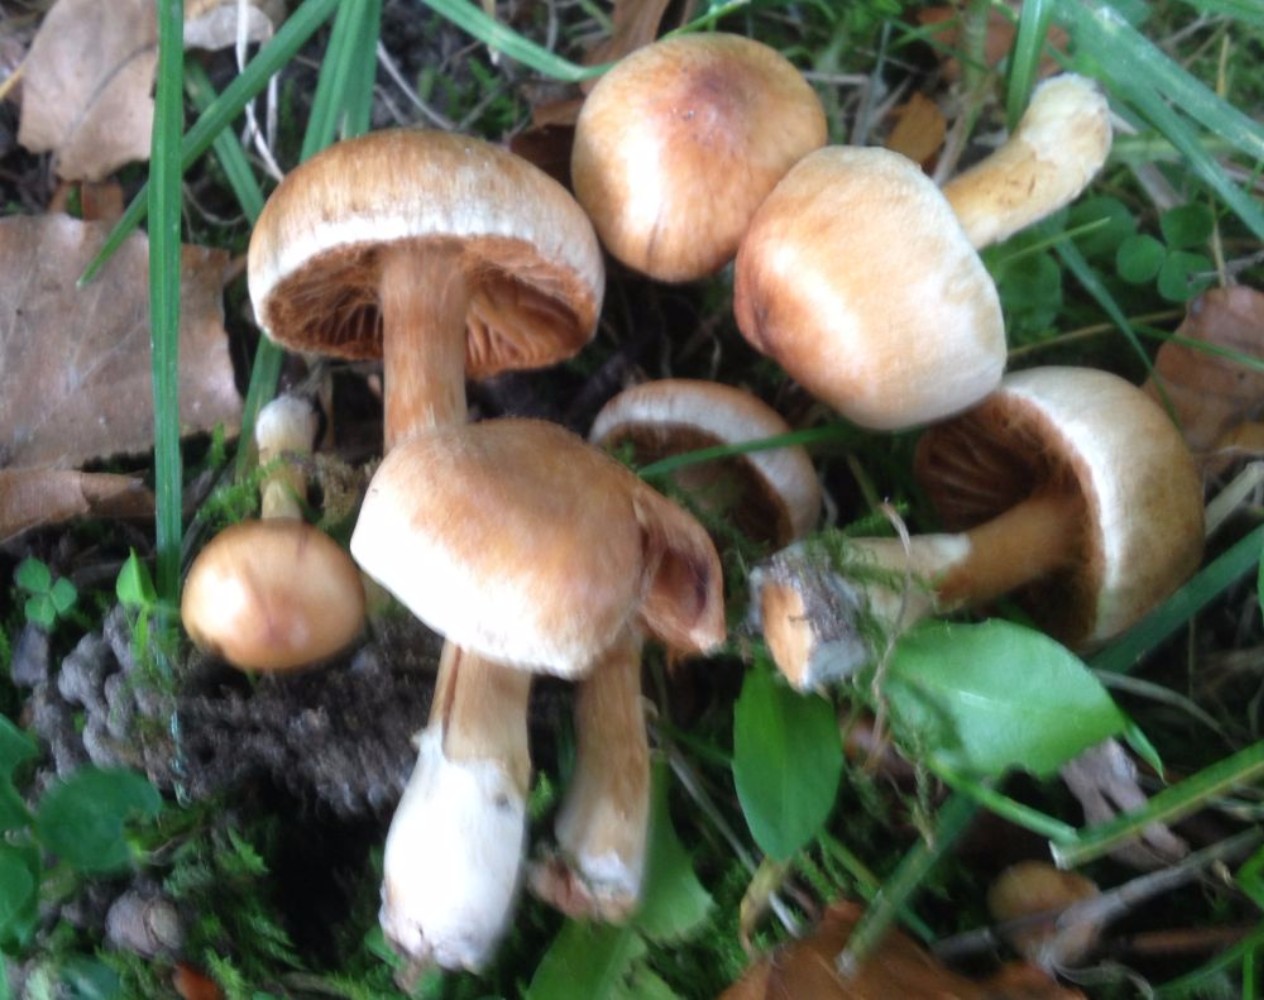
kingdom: Fungi
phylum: Basidiomycota
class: Agaricomycetes
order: Agaricales
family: Cortinariaceae
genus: Cortinarius
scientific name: Cortinarius
